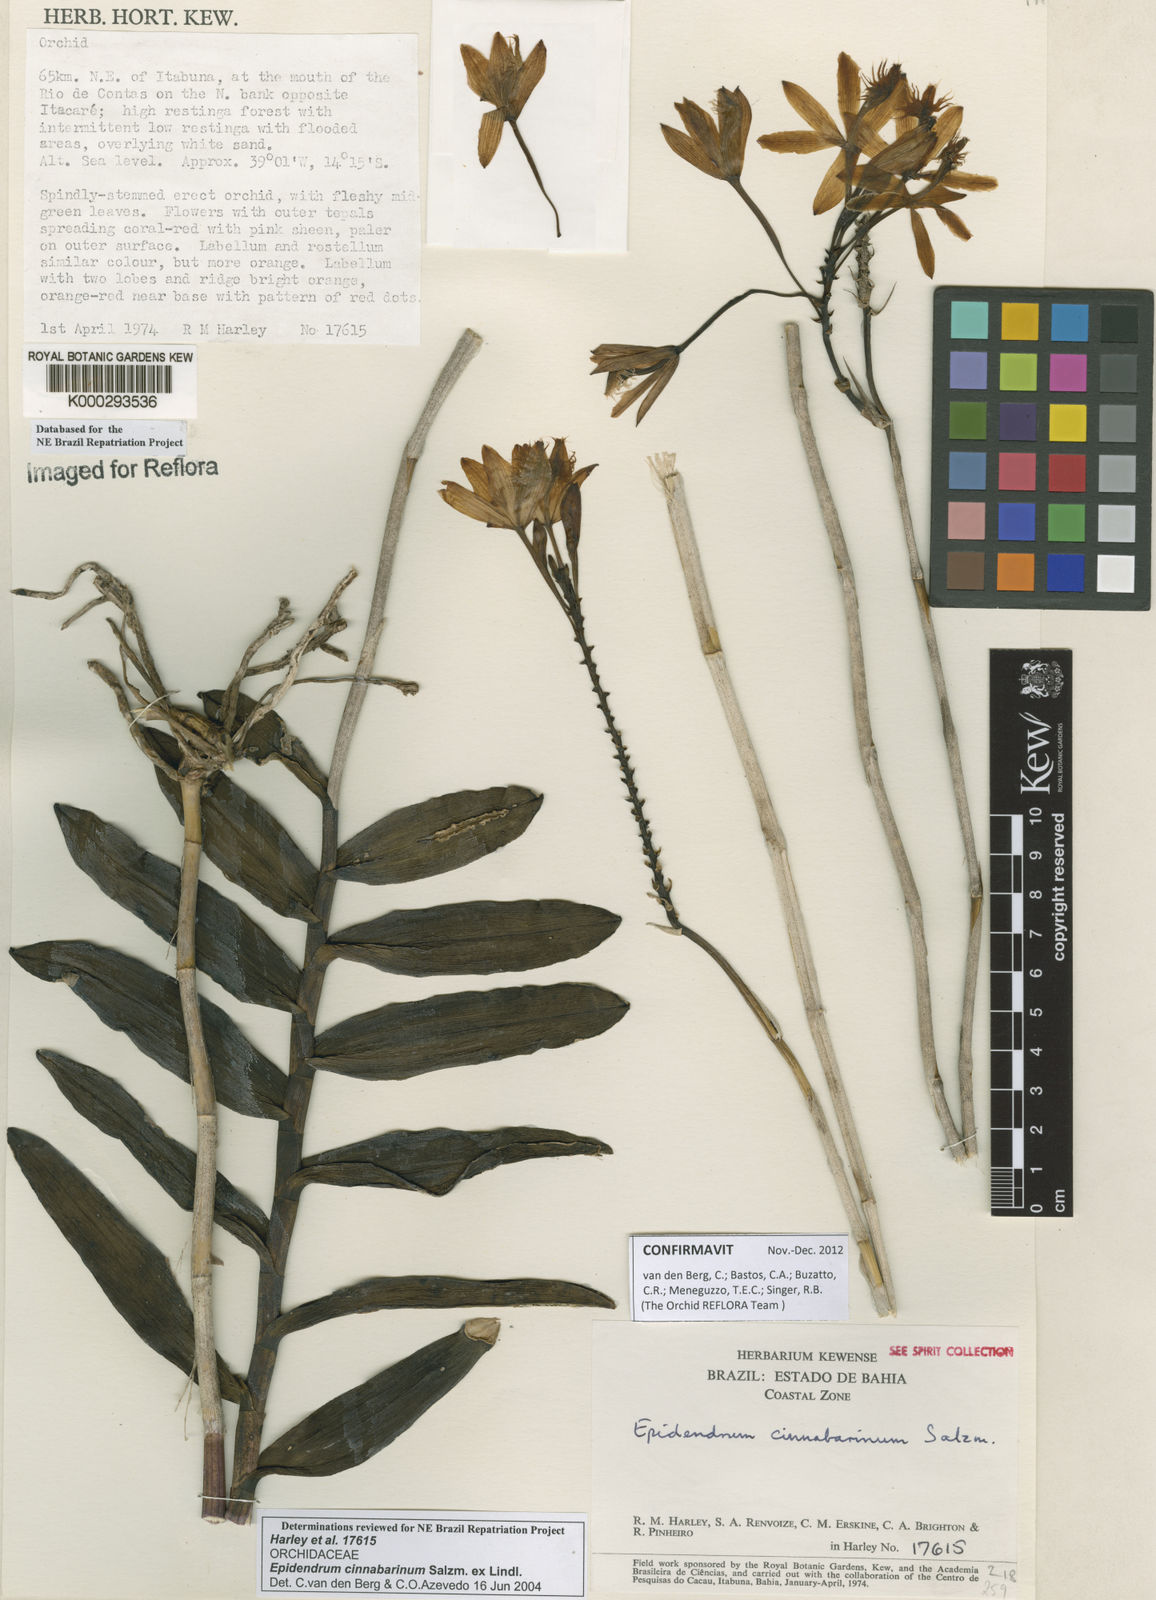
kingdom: Plantae
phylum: Tracheophyta
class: Liliopsida
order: Asparagales
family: Orchidaceae
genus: Epidendrum
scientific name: Epidendrum cinnabarinum
